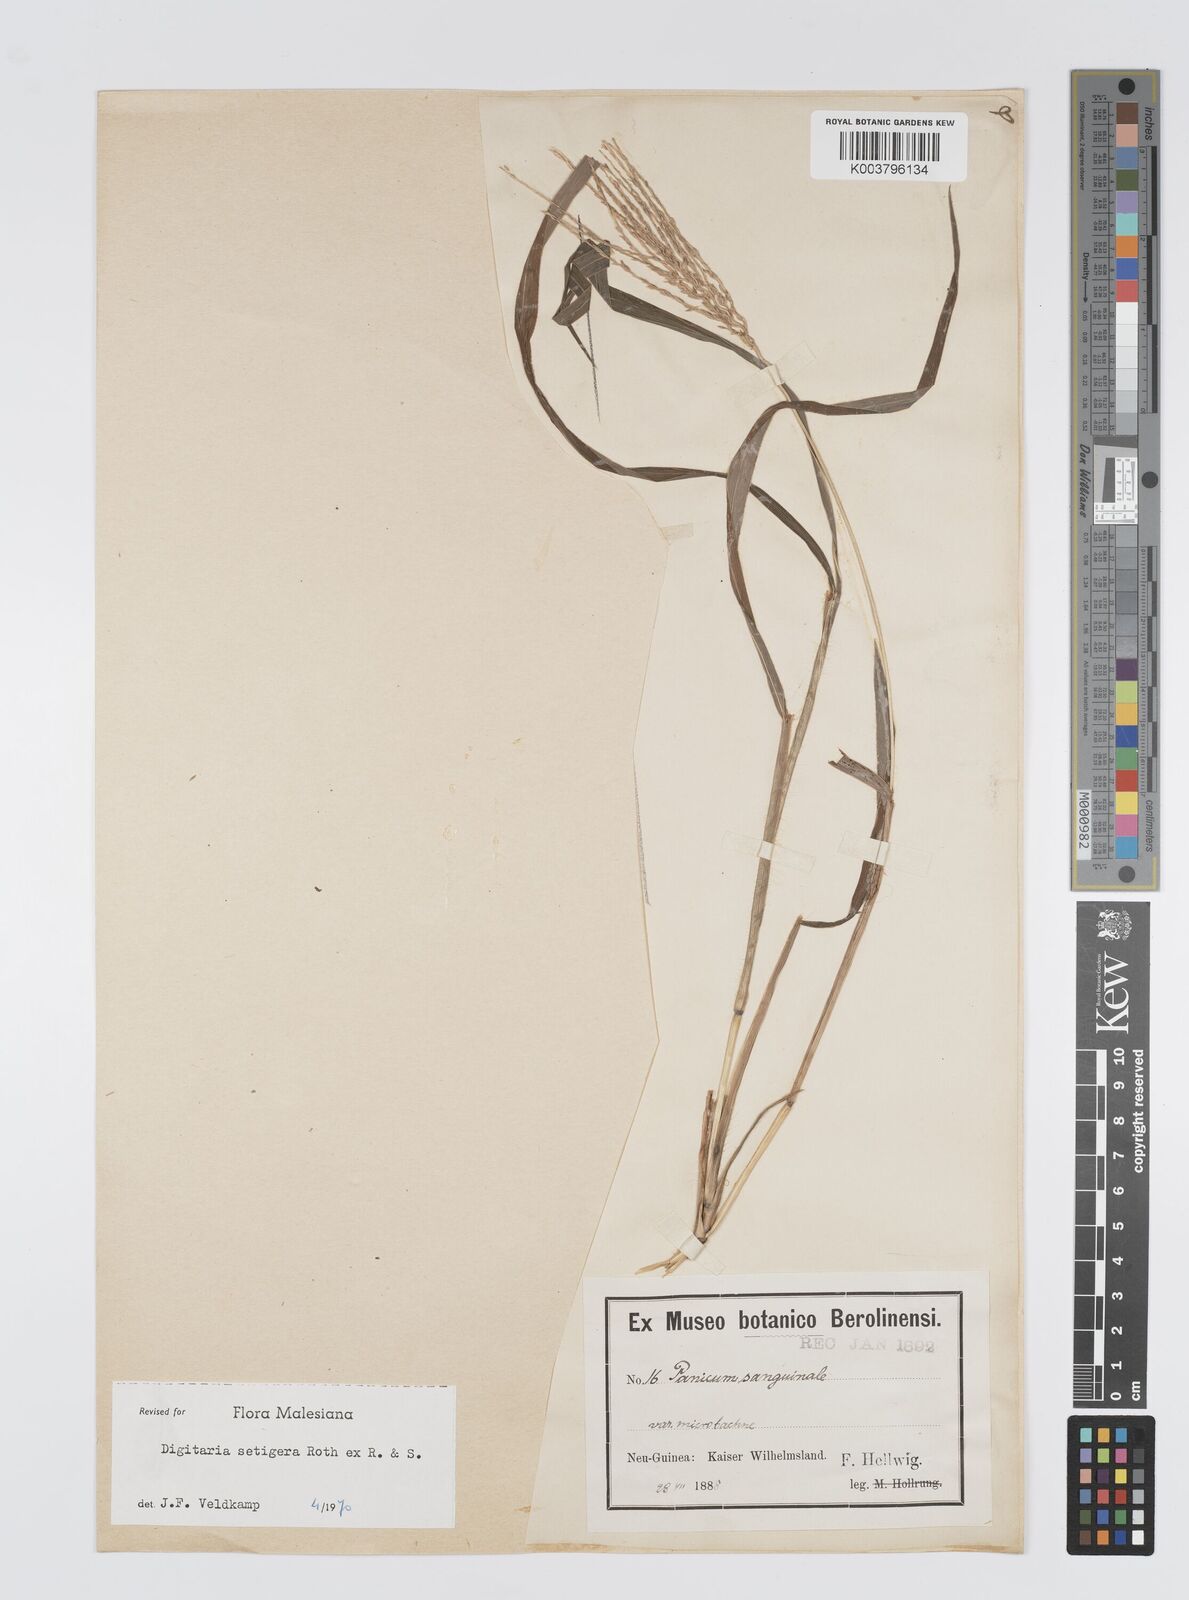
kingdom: Plantae
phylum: Tracheophyta
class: Liliopsida
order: Poales
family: Poaceae
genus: Digitaria
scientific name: Digitaria setigera
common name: East indian crabgrass
